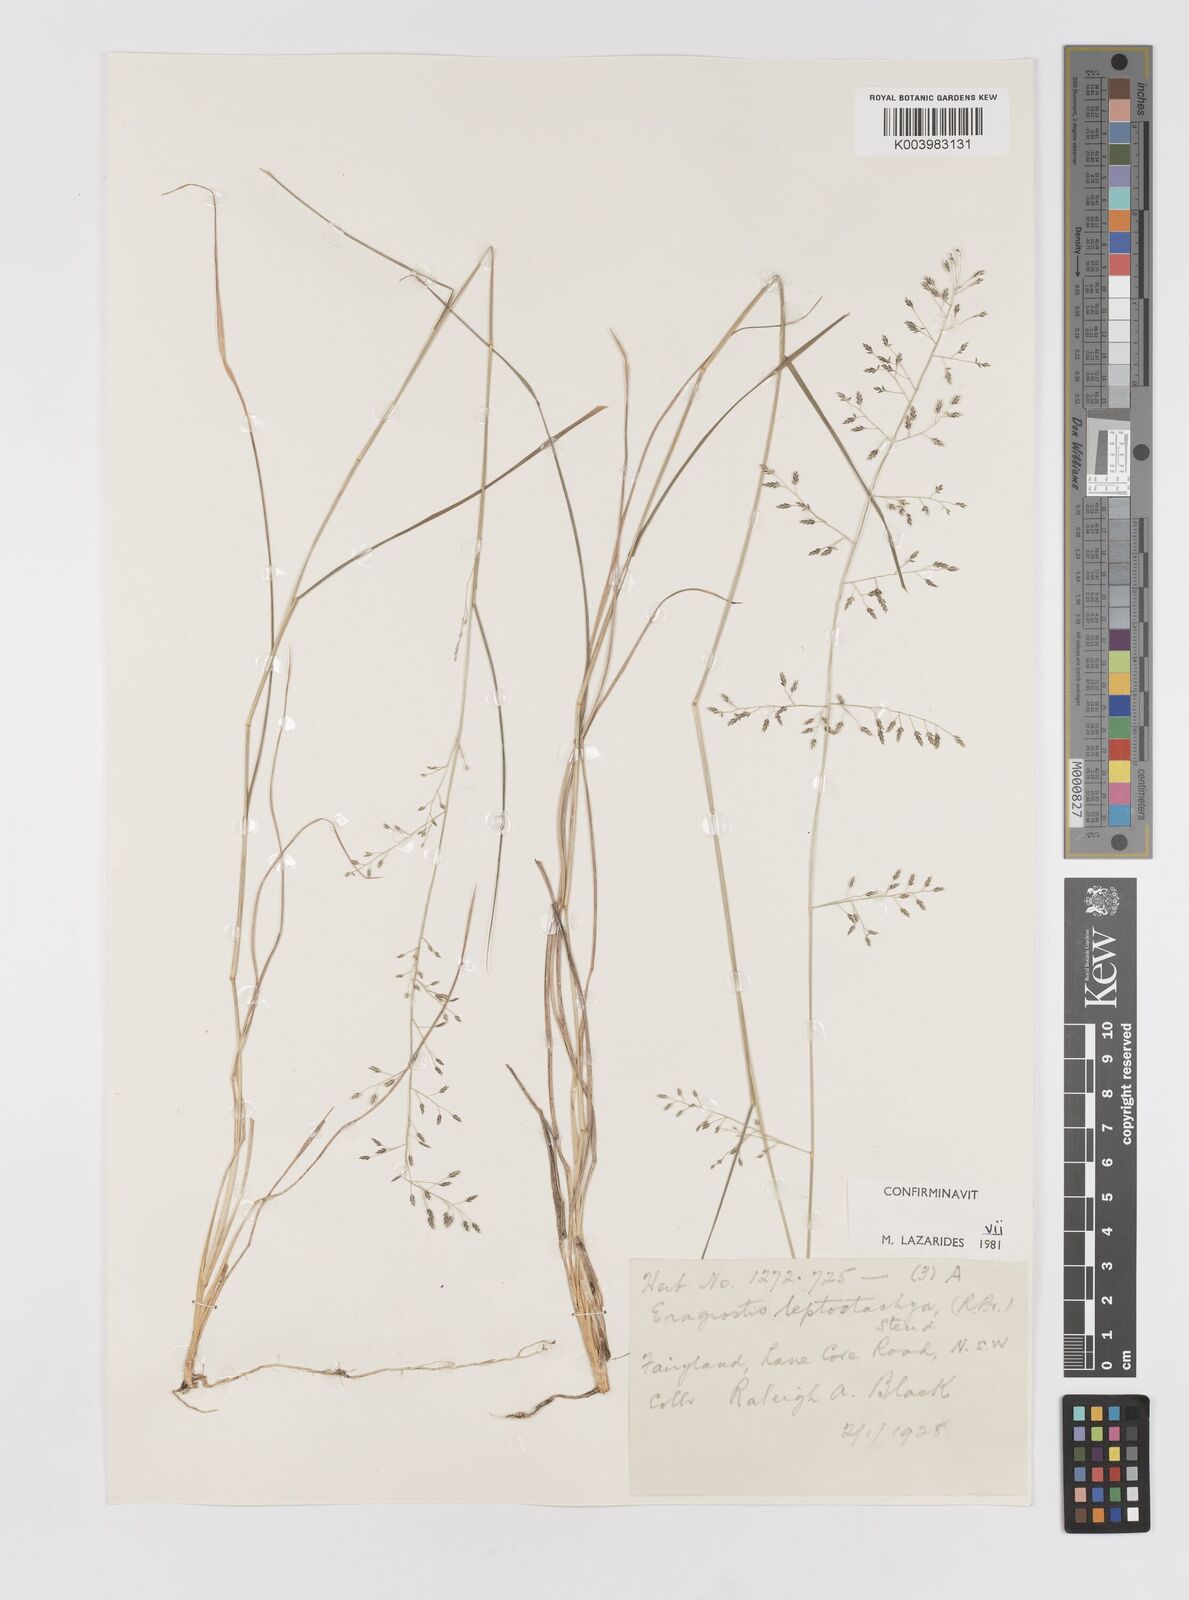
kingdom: Plantae
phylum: Tracheophyta
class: Liliopsida
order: Poales
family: Poaceae
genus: Eragrostis
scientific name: Eragrostis leptostachya
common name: Australian lovegrass
